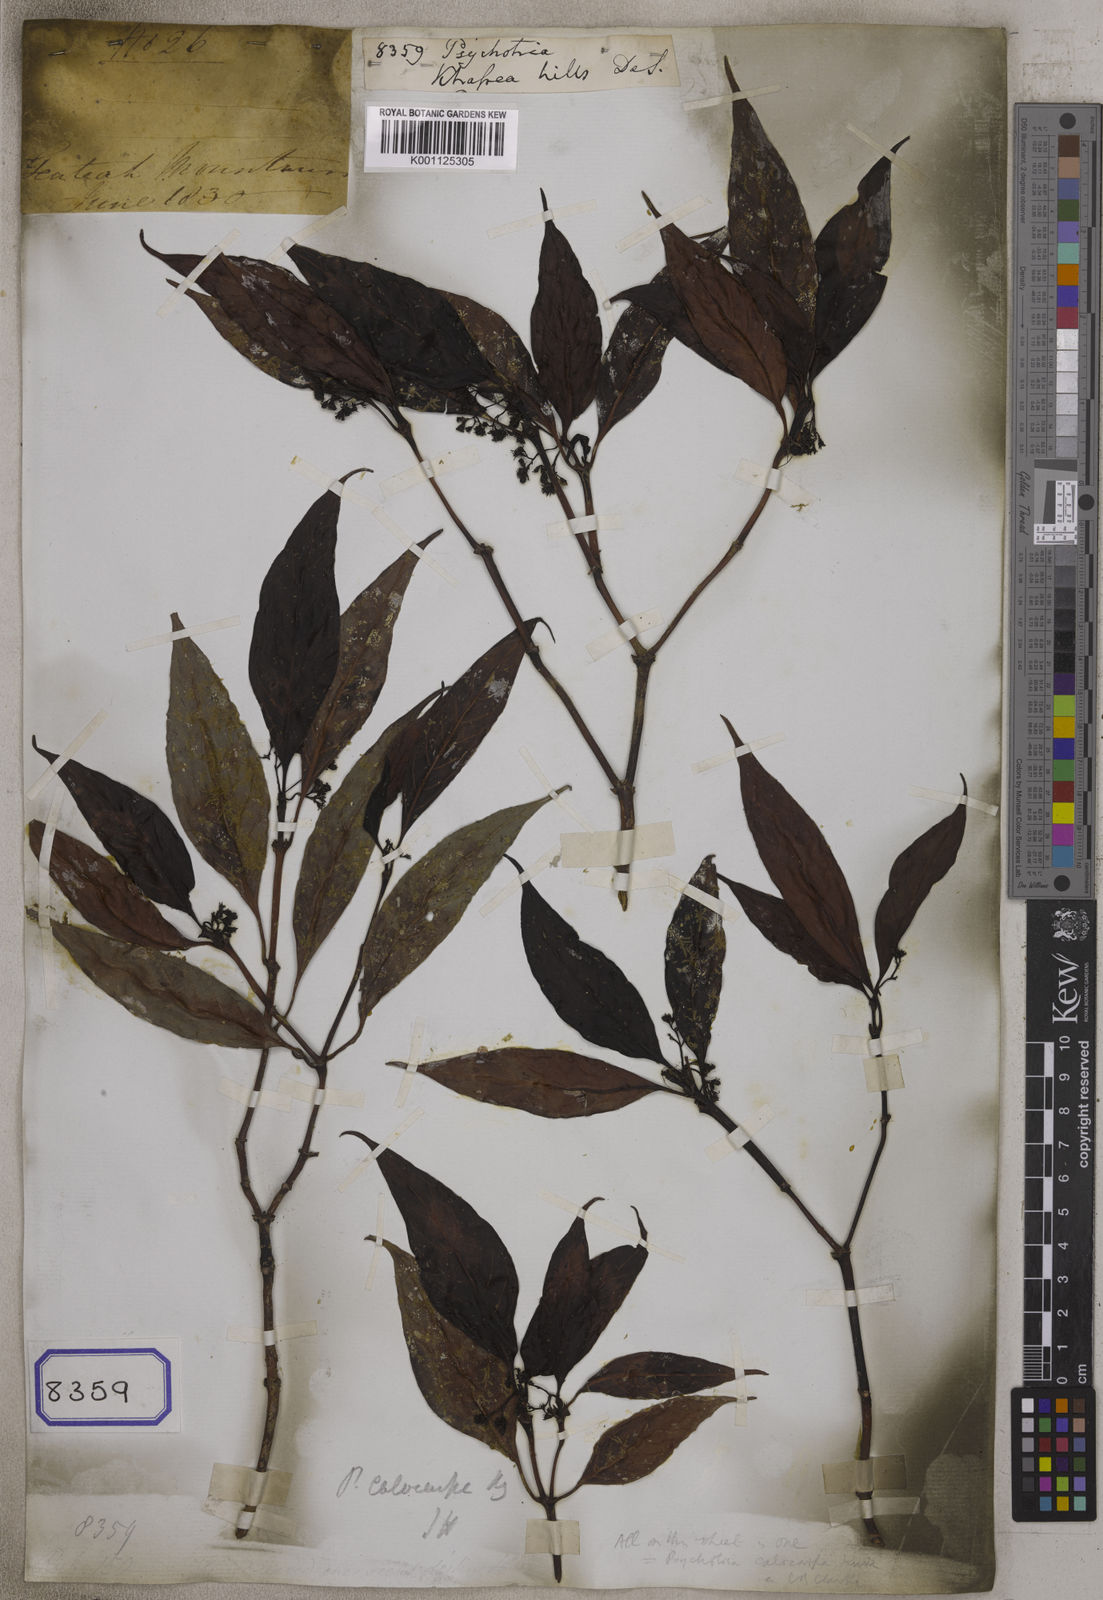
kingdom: Plantae
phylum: Tracheophyta
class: Magnoliopsida
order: Gentianales
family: Rubiaceae
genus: Psychotria
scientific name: Psychotria
